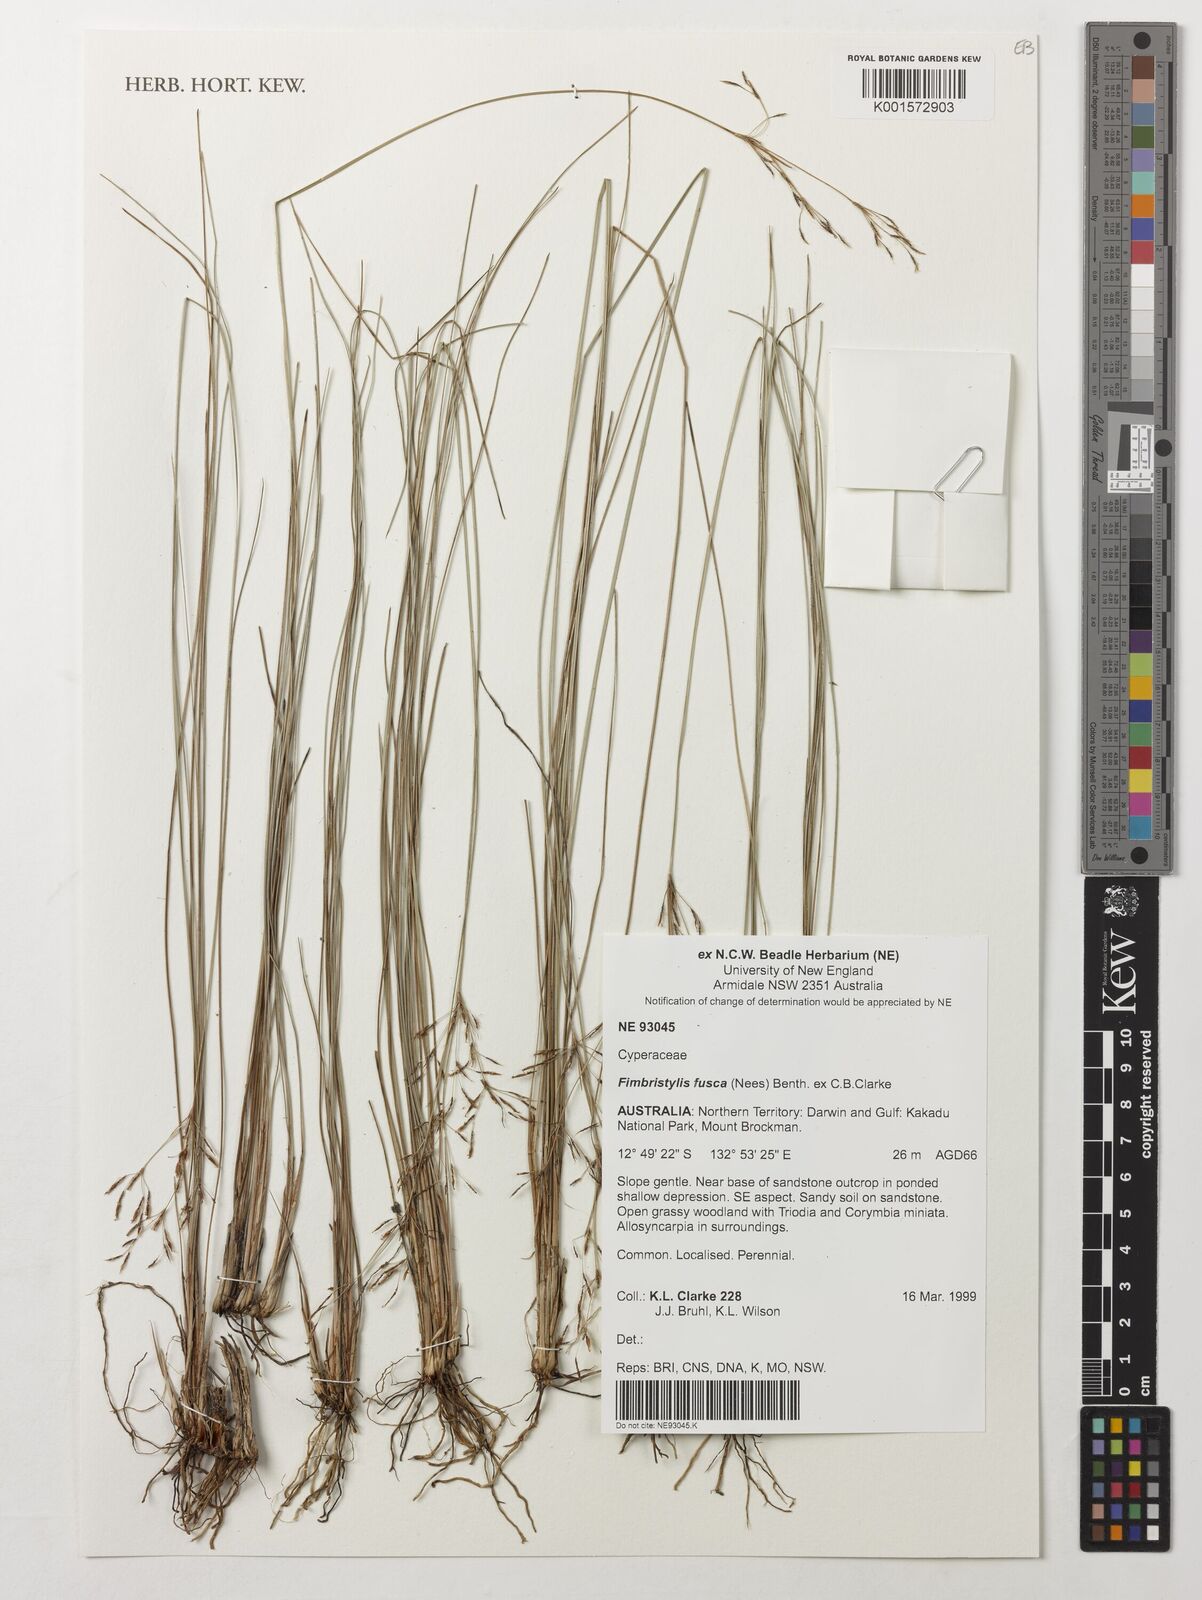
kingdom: Plantae
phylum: Tracheophyta
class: Liliopsida
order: Poales
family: Cyperaceae
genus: Fimbristylis
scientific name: Fimbristylis fusca
